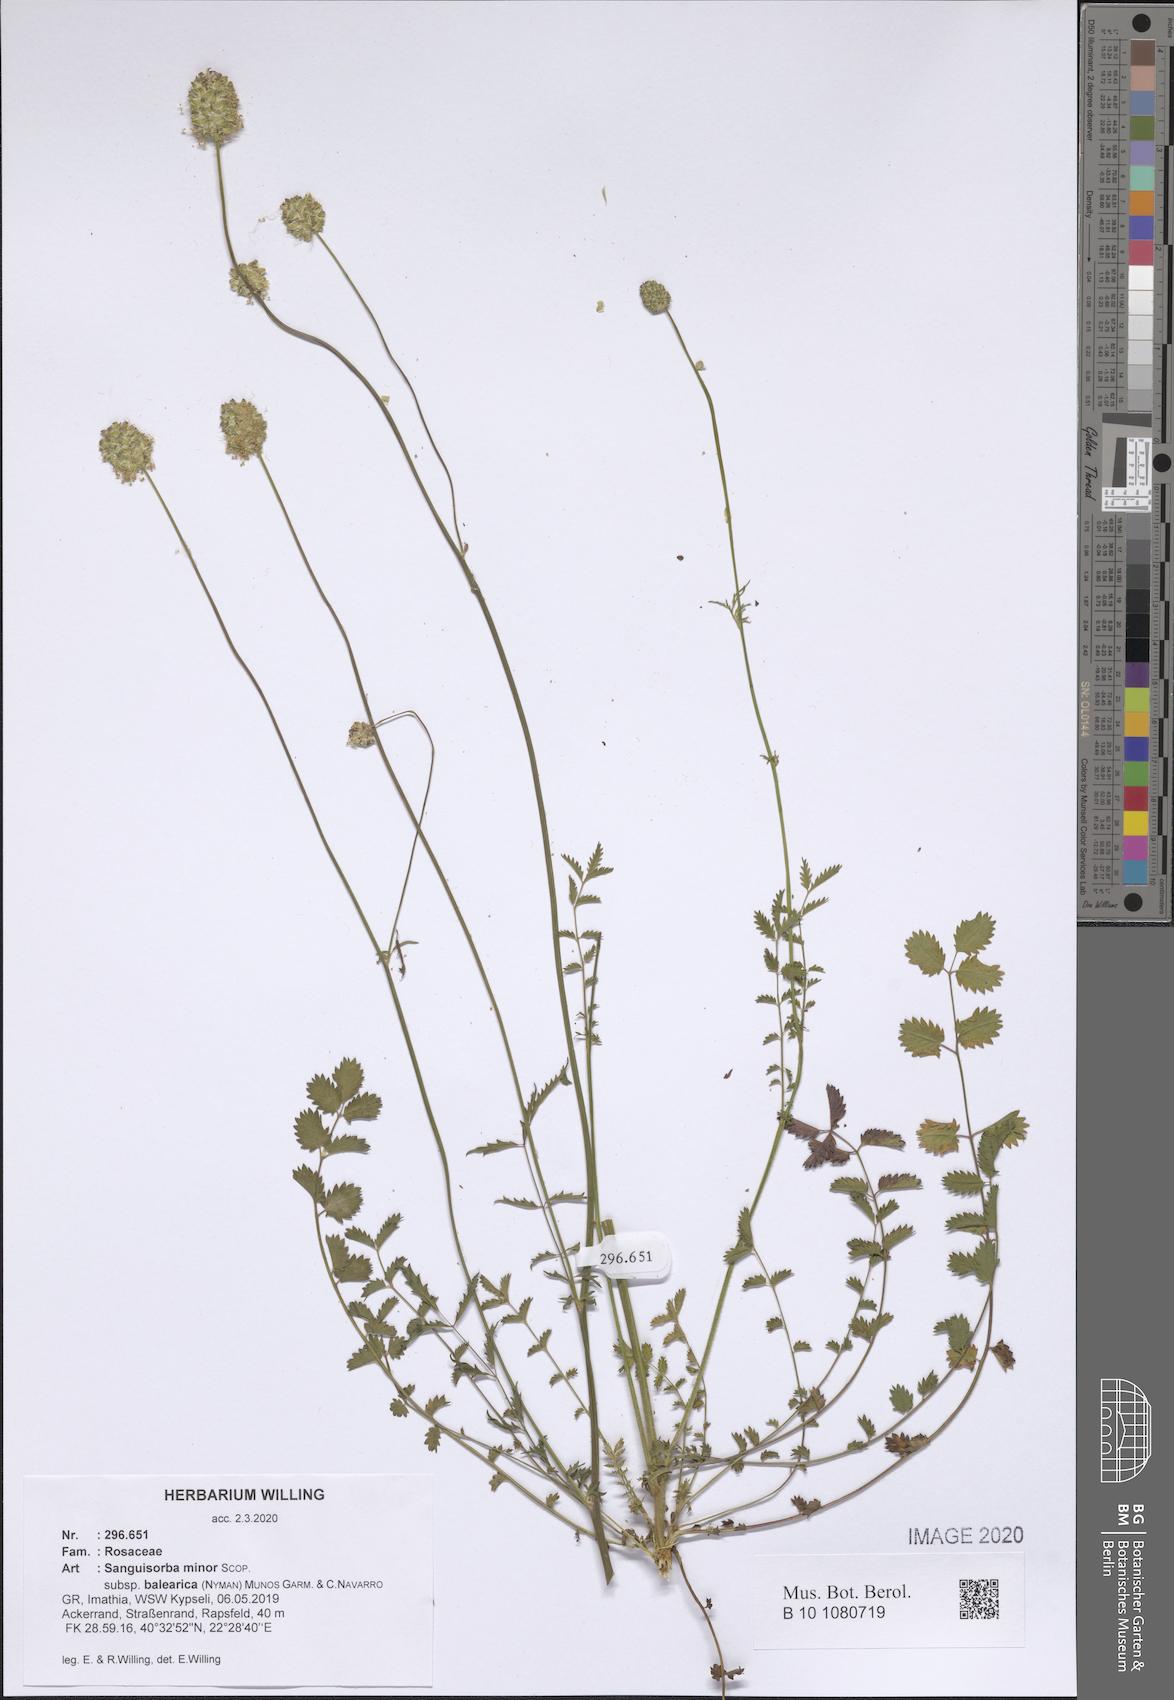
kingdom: Plantae
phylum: Tracheophyta
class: Magnoliopsida
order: Rosales
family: Rosaceae
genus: Poterium
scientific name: Poterium sanguisorba
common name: Salad burnet
